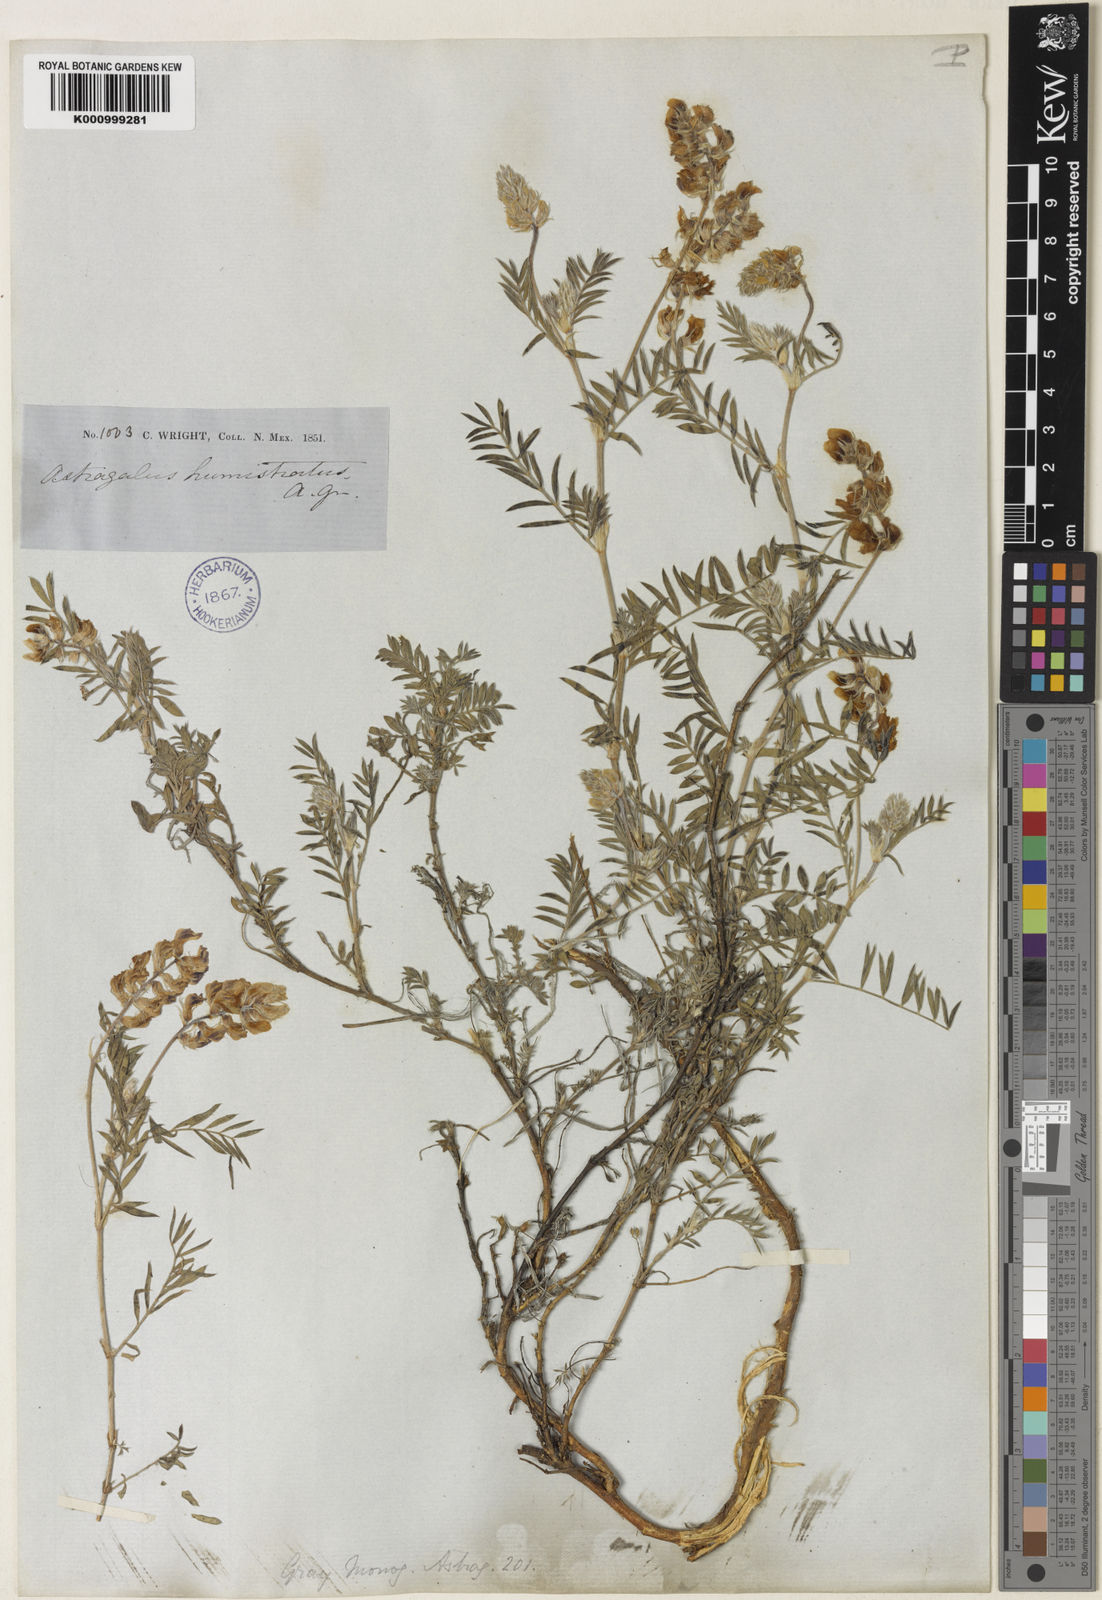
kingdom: Plantae
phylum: Tracheophyta
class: Magnoliopsida
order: Fabales
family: Fabaceae
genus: Astragalus
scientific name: Astragalus humistratus
